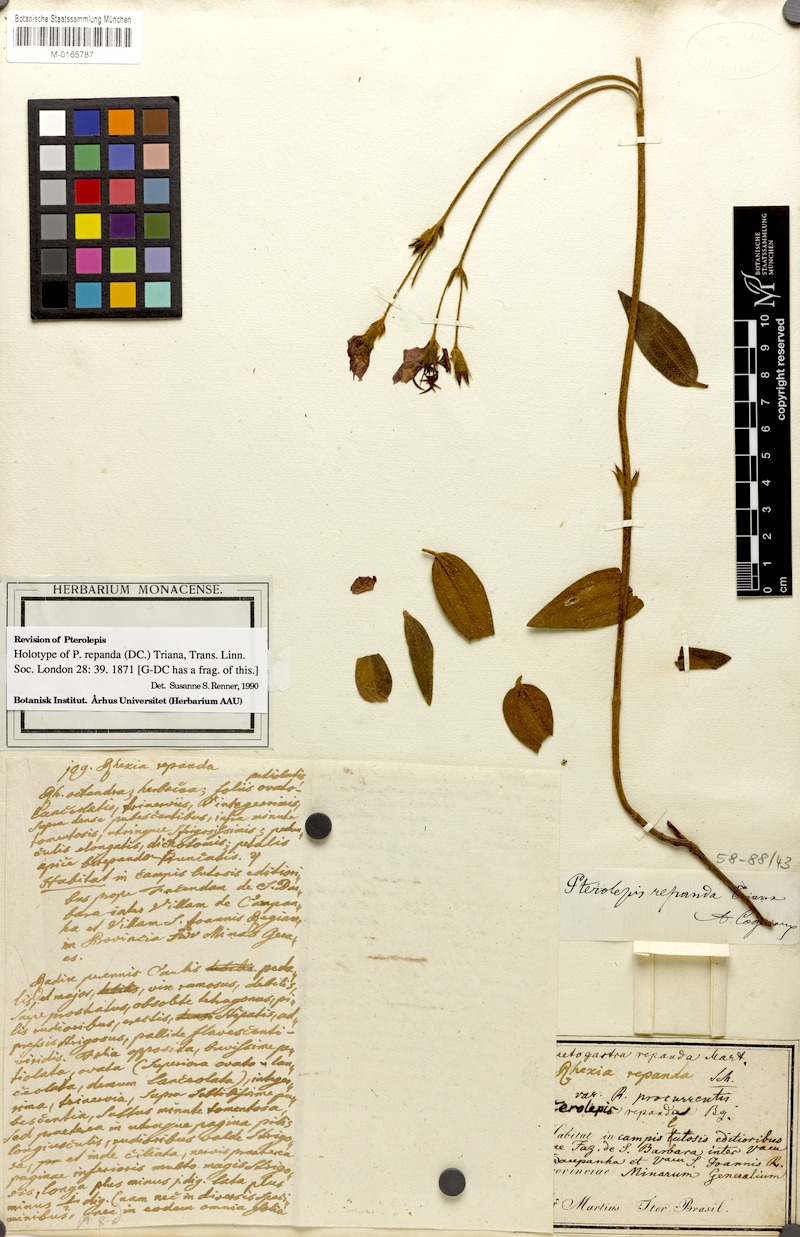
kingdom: Plantae
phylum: Tracheophyta
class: Magnoliopsida
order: Myrtales
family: Melastomataceae
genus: Pterolepis
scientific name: Pterolepis repanda
